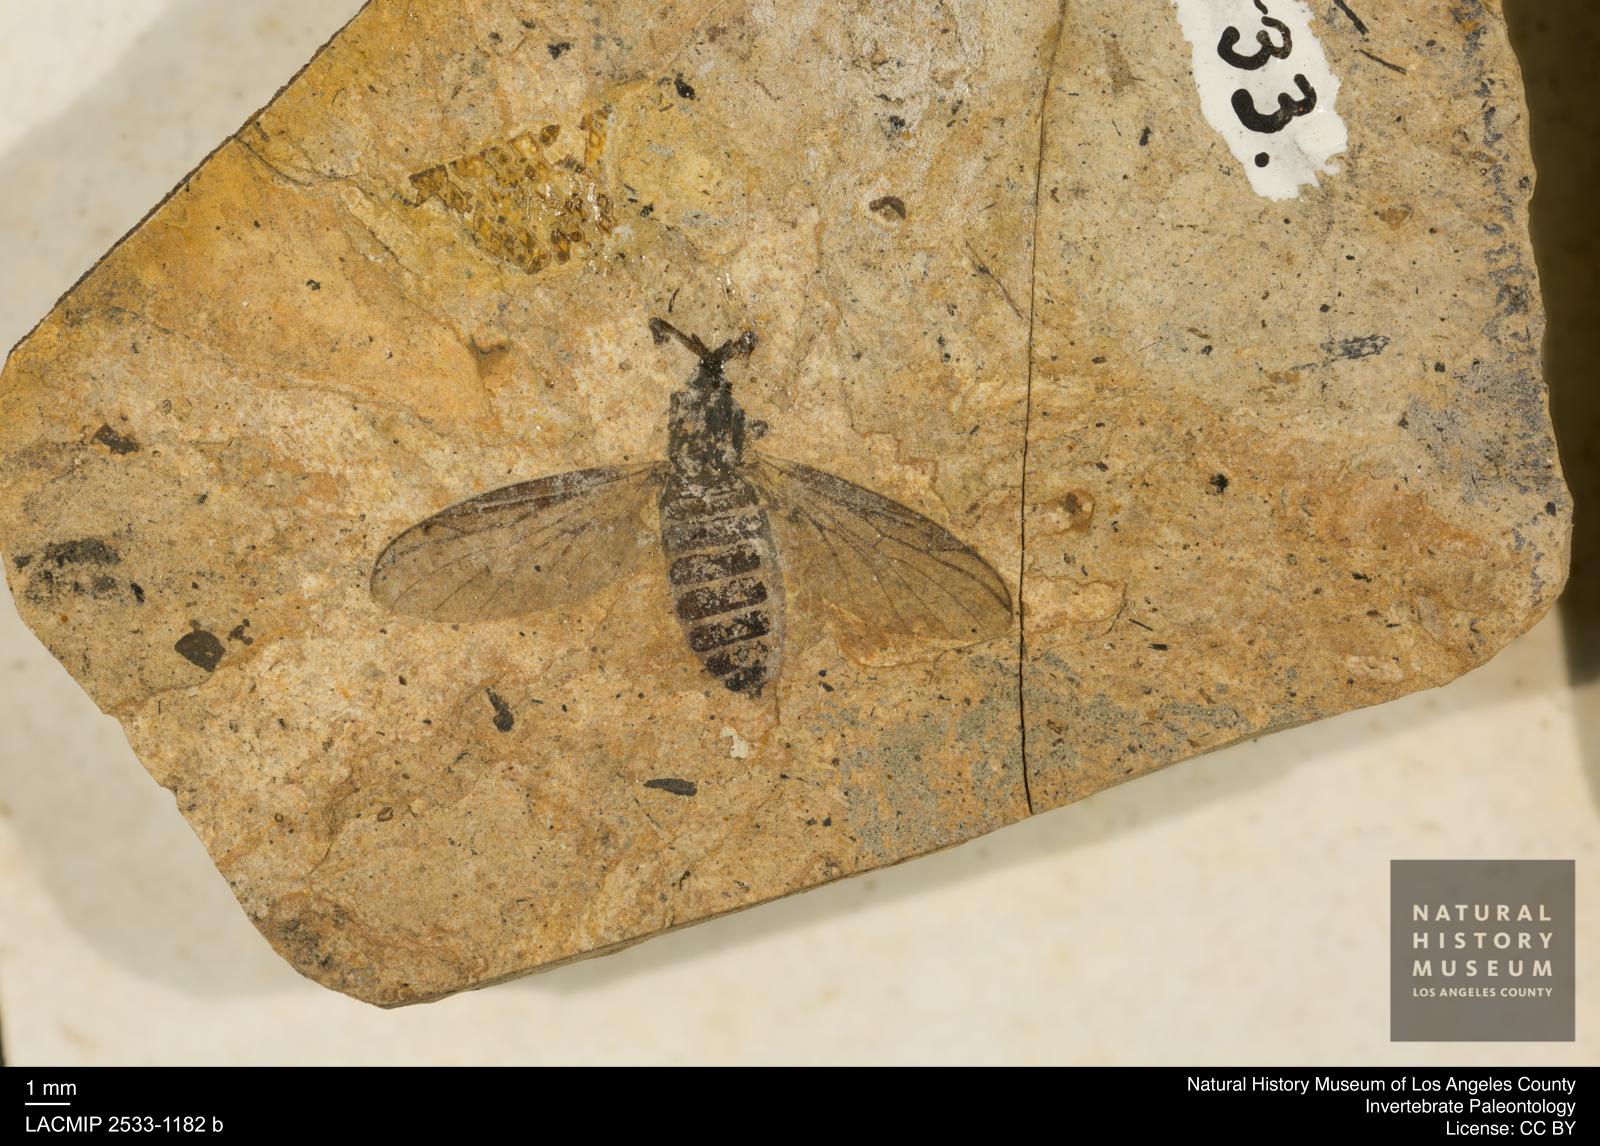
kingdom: Animalia
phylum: Arthropoda
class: Insecta
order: Diptera
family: Bibionidae
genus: Plecia
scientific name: Plecia grossa
